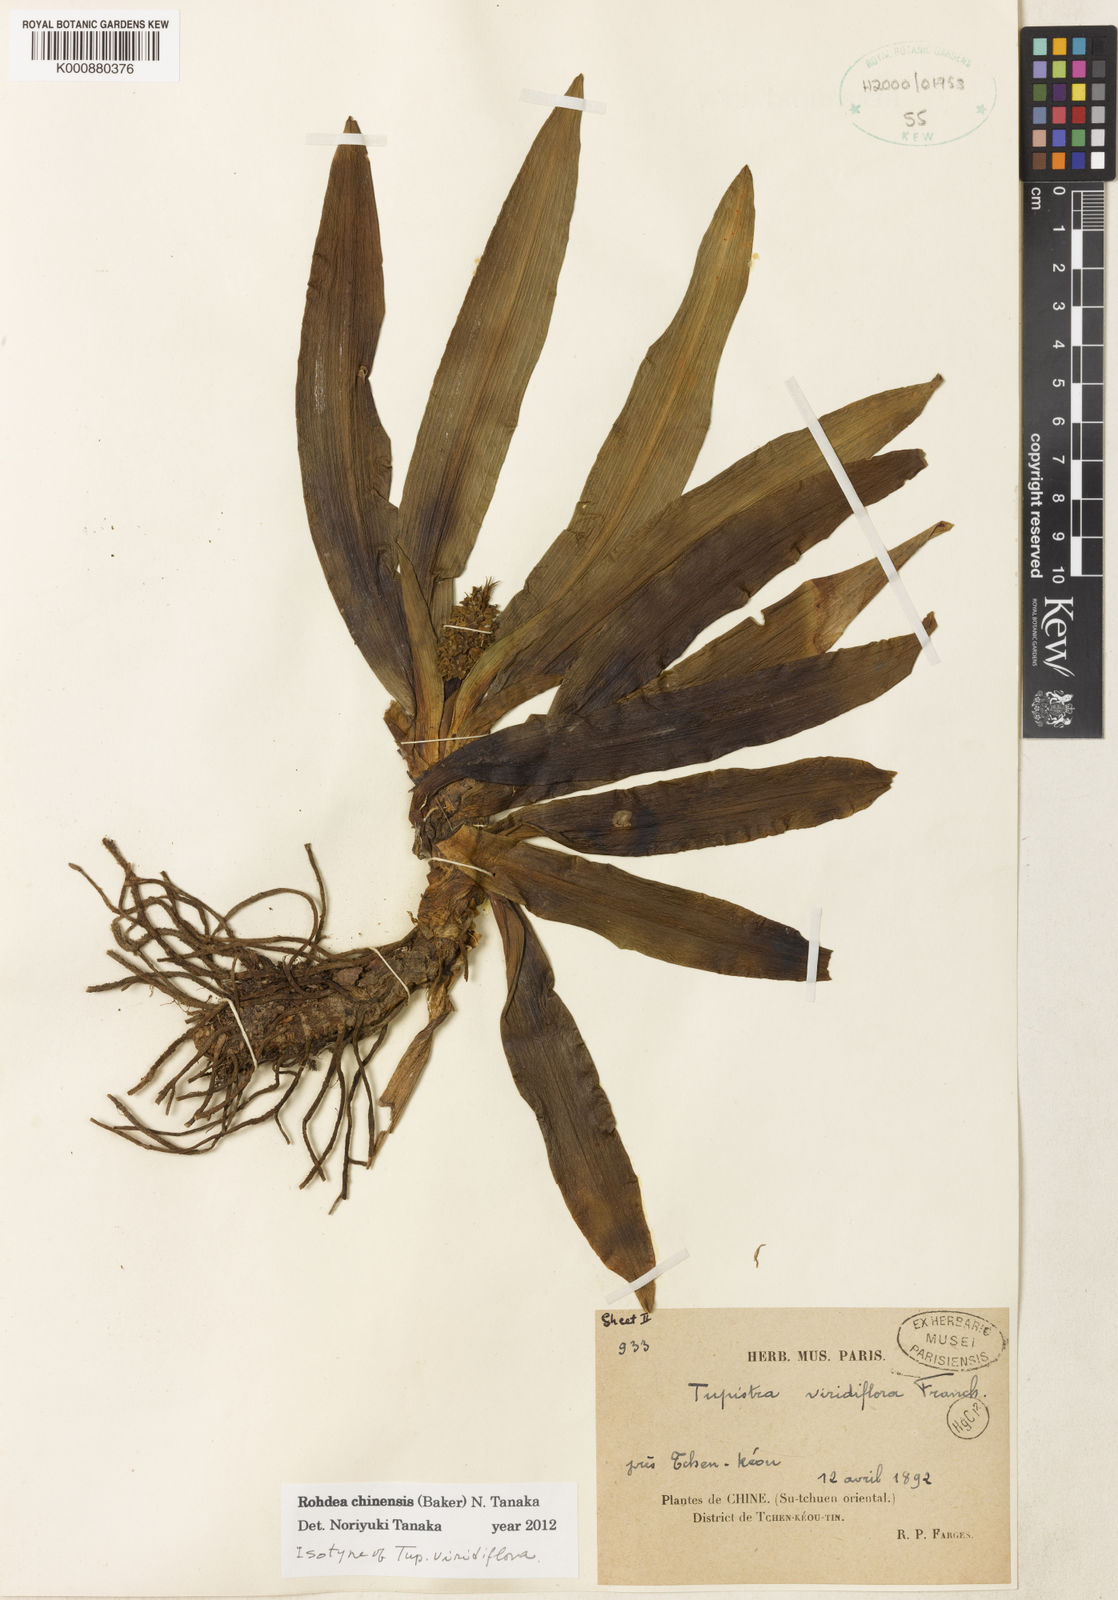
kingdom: Plantae
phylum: Tracheophyta
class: Liliopsida
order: Asparagales
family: Asparagaceae
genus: Rohdea
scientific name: Rohdea fargesii
